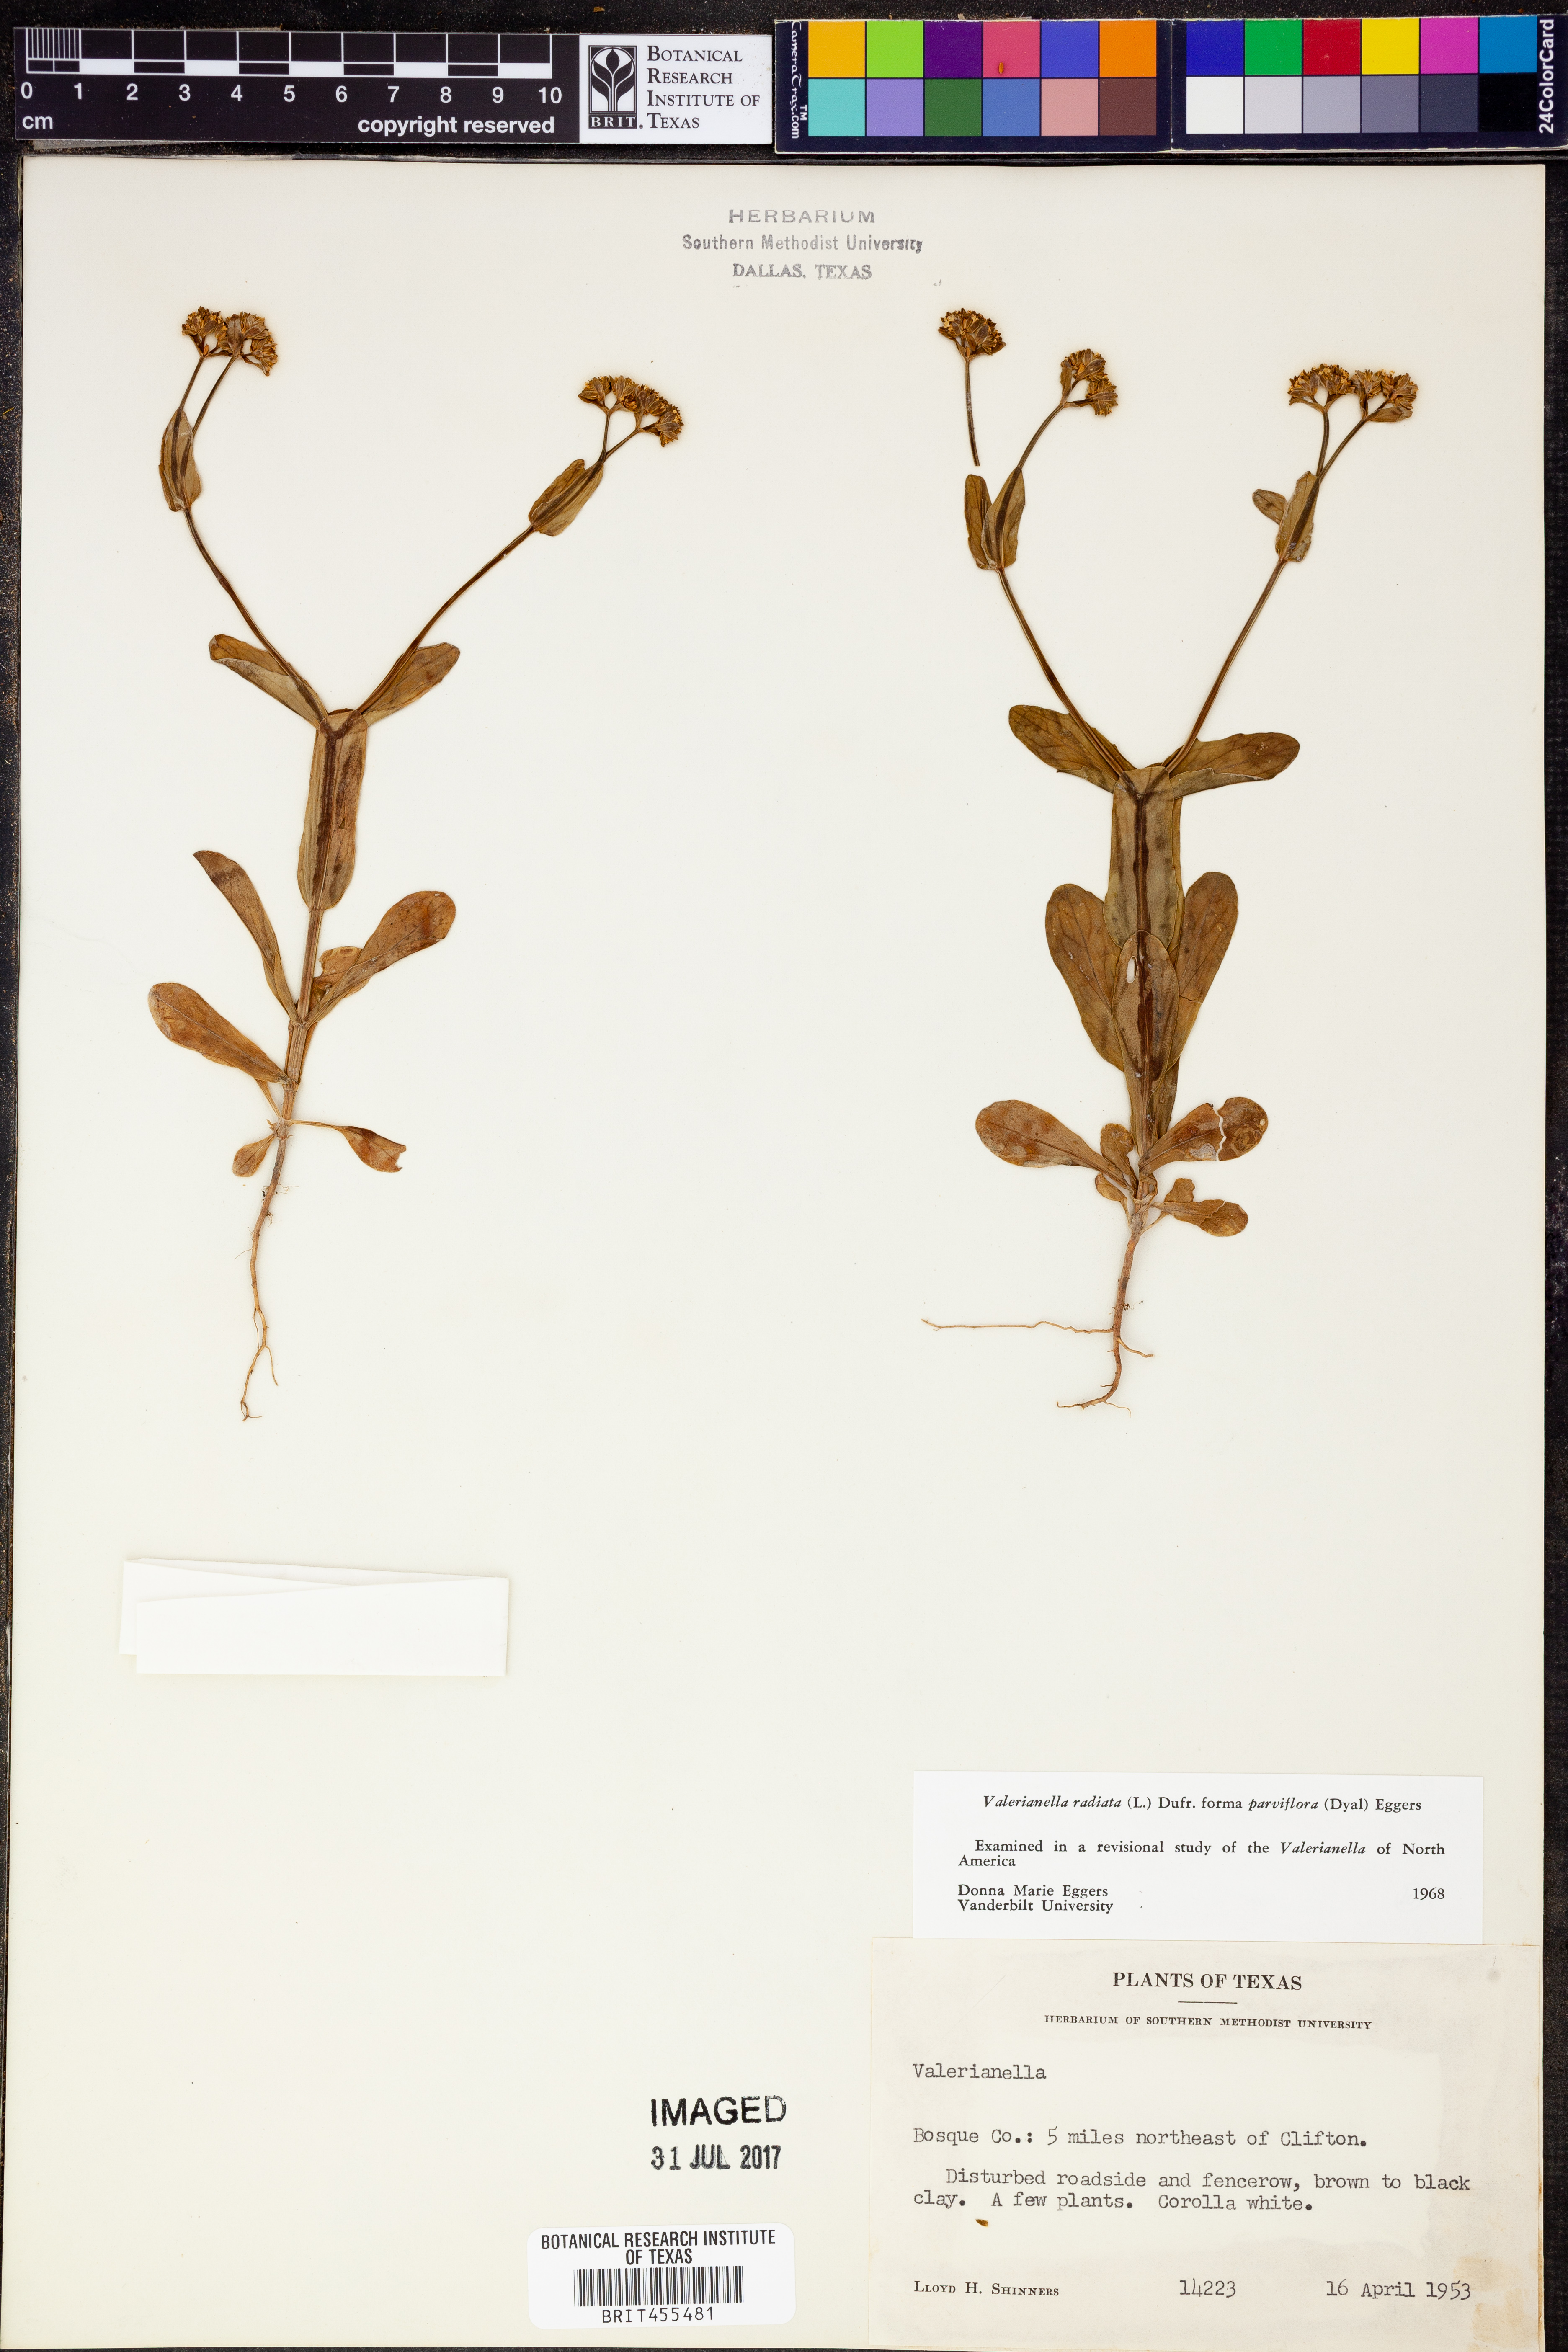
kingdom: Plantae
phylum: Tracheophyta
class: Magnoliopsida
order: Dipsacales
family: Caprifoliaceae
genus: Valerianella
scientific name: Valerianella radiata
